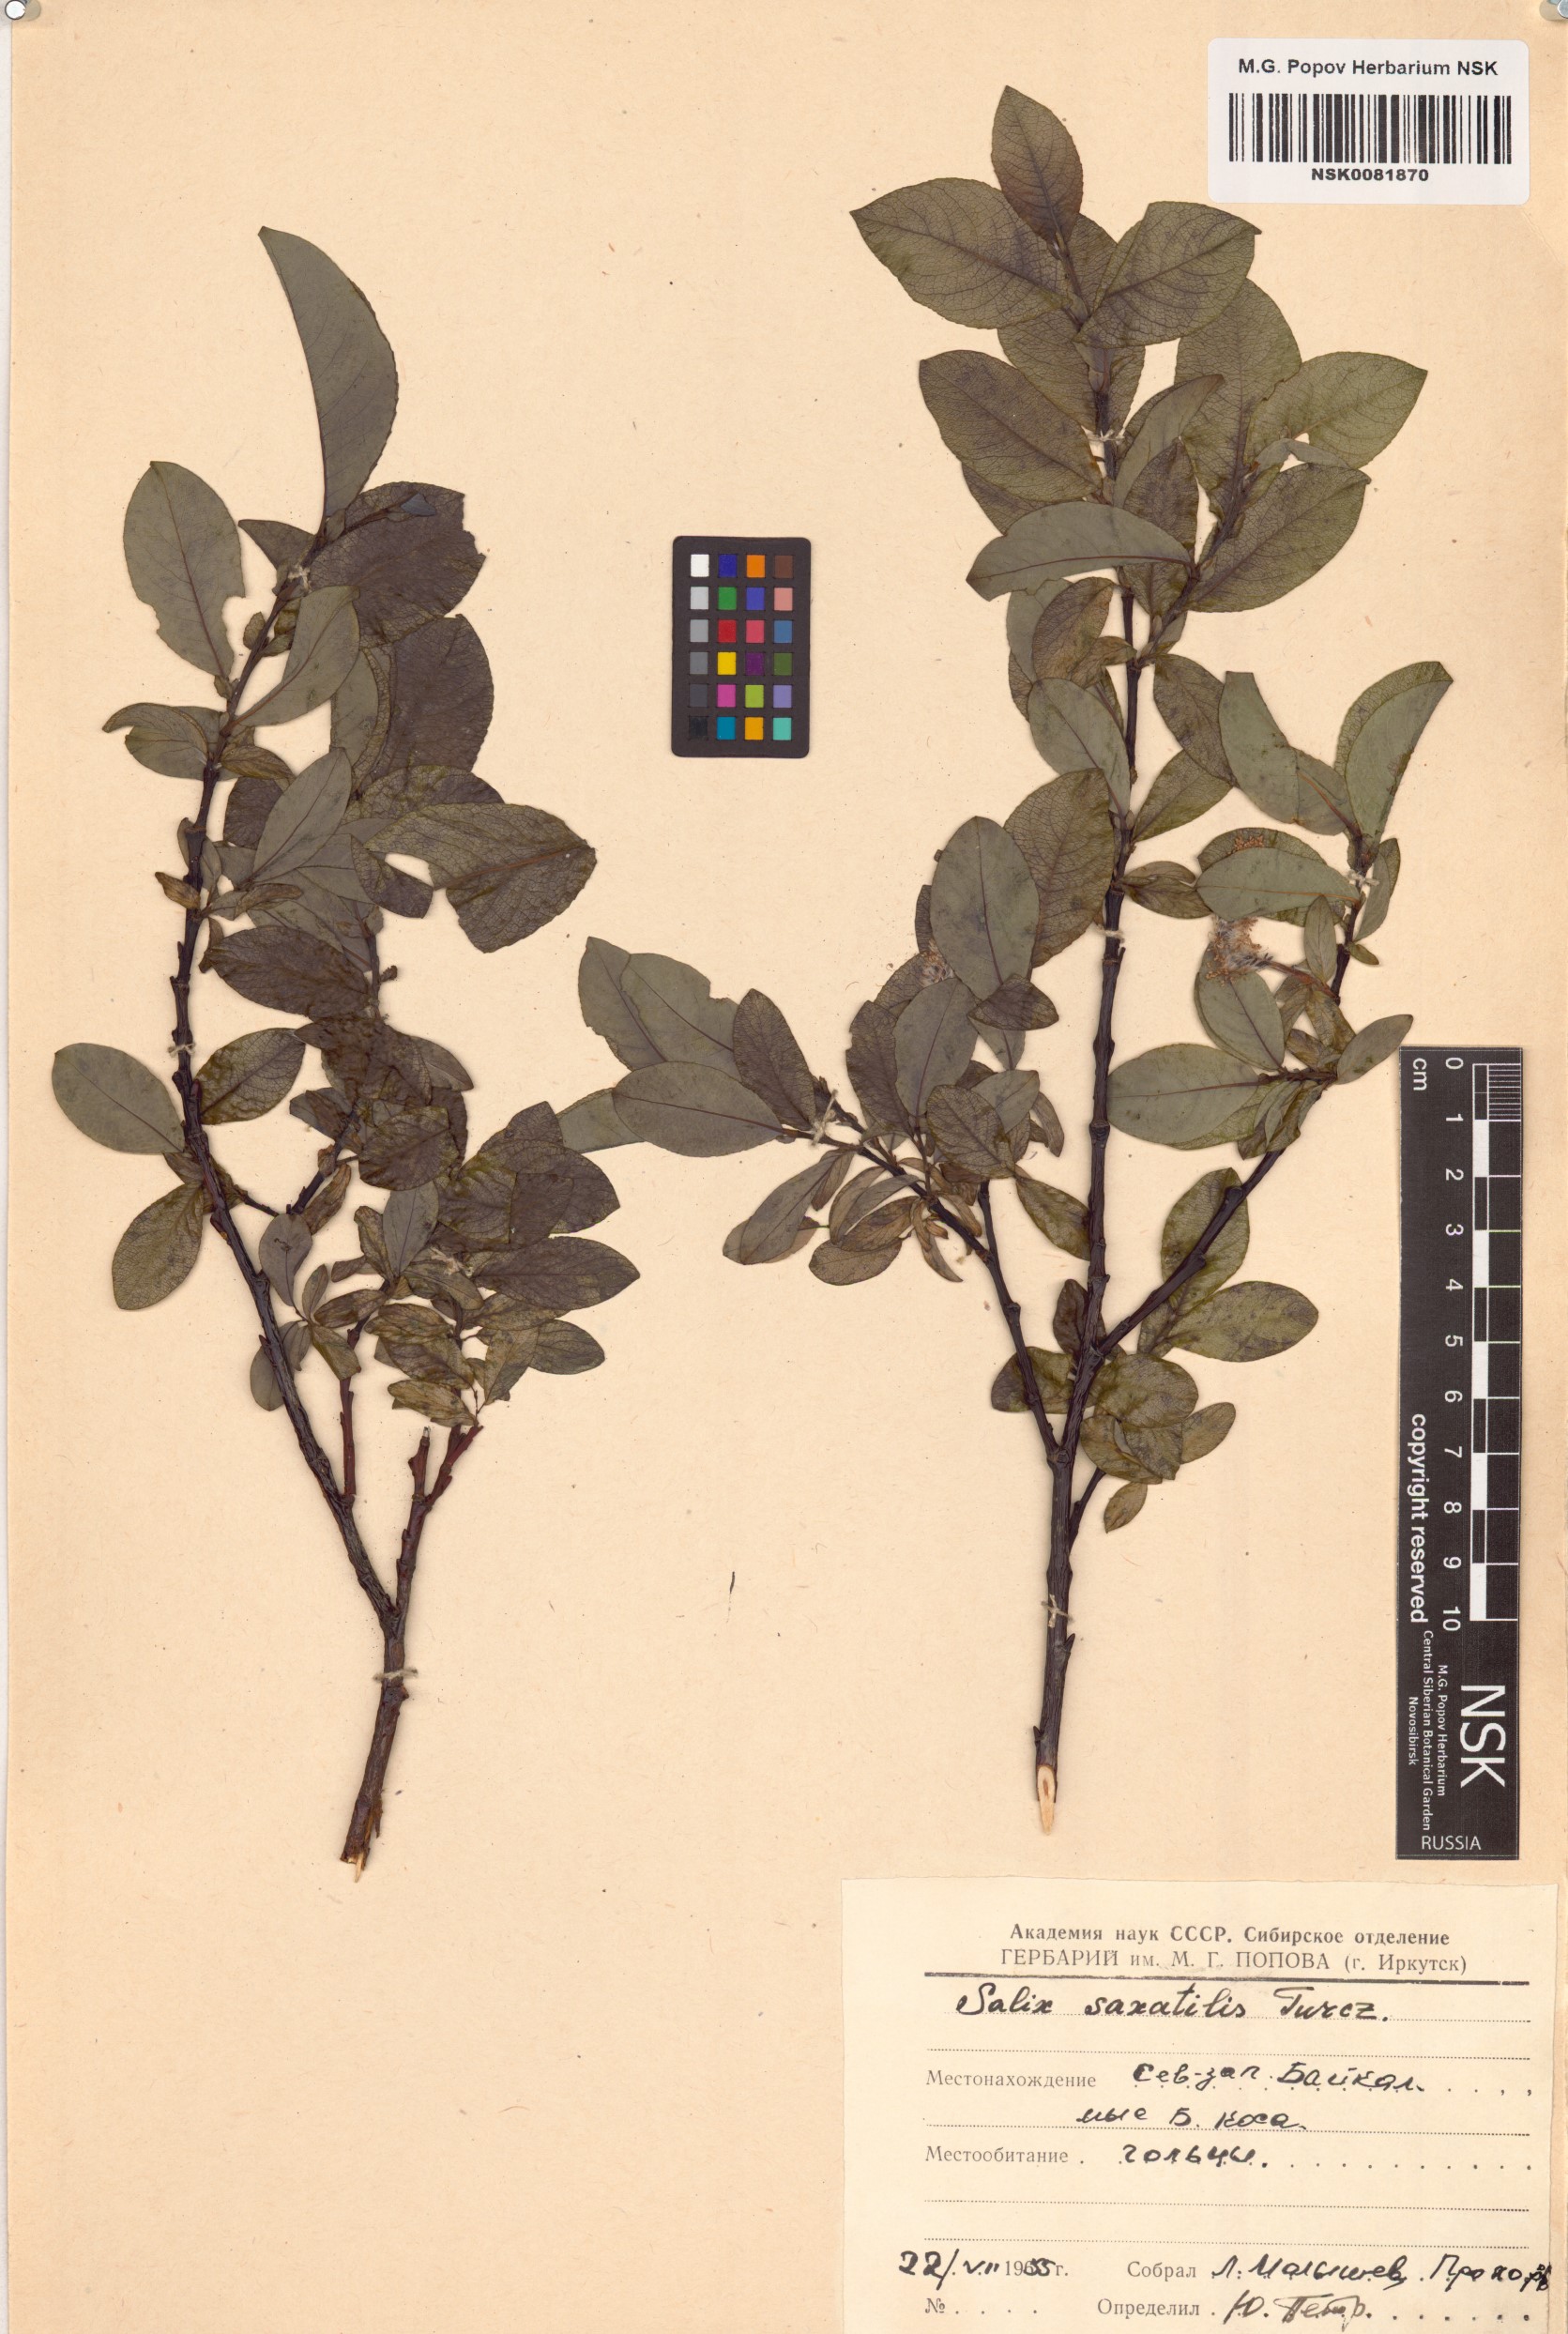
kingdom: Plantae
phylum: Tracheophyta
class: Magnoliopsida
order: Malpighiales
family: Salicaceae
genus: Salix
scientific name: Salix saxatilis
